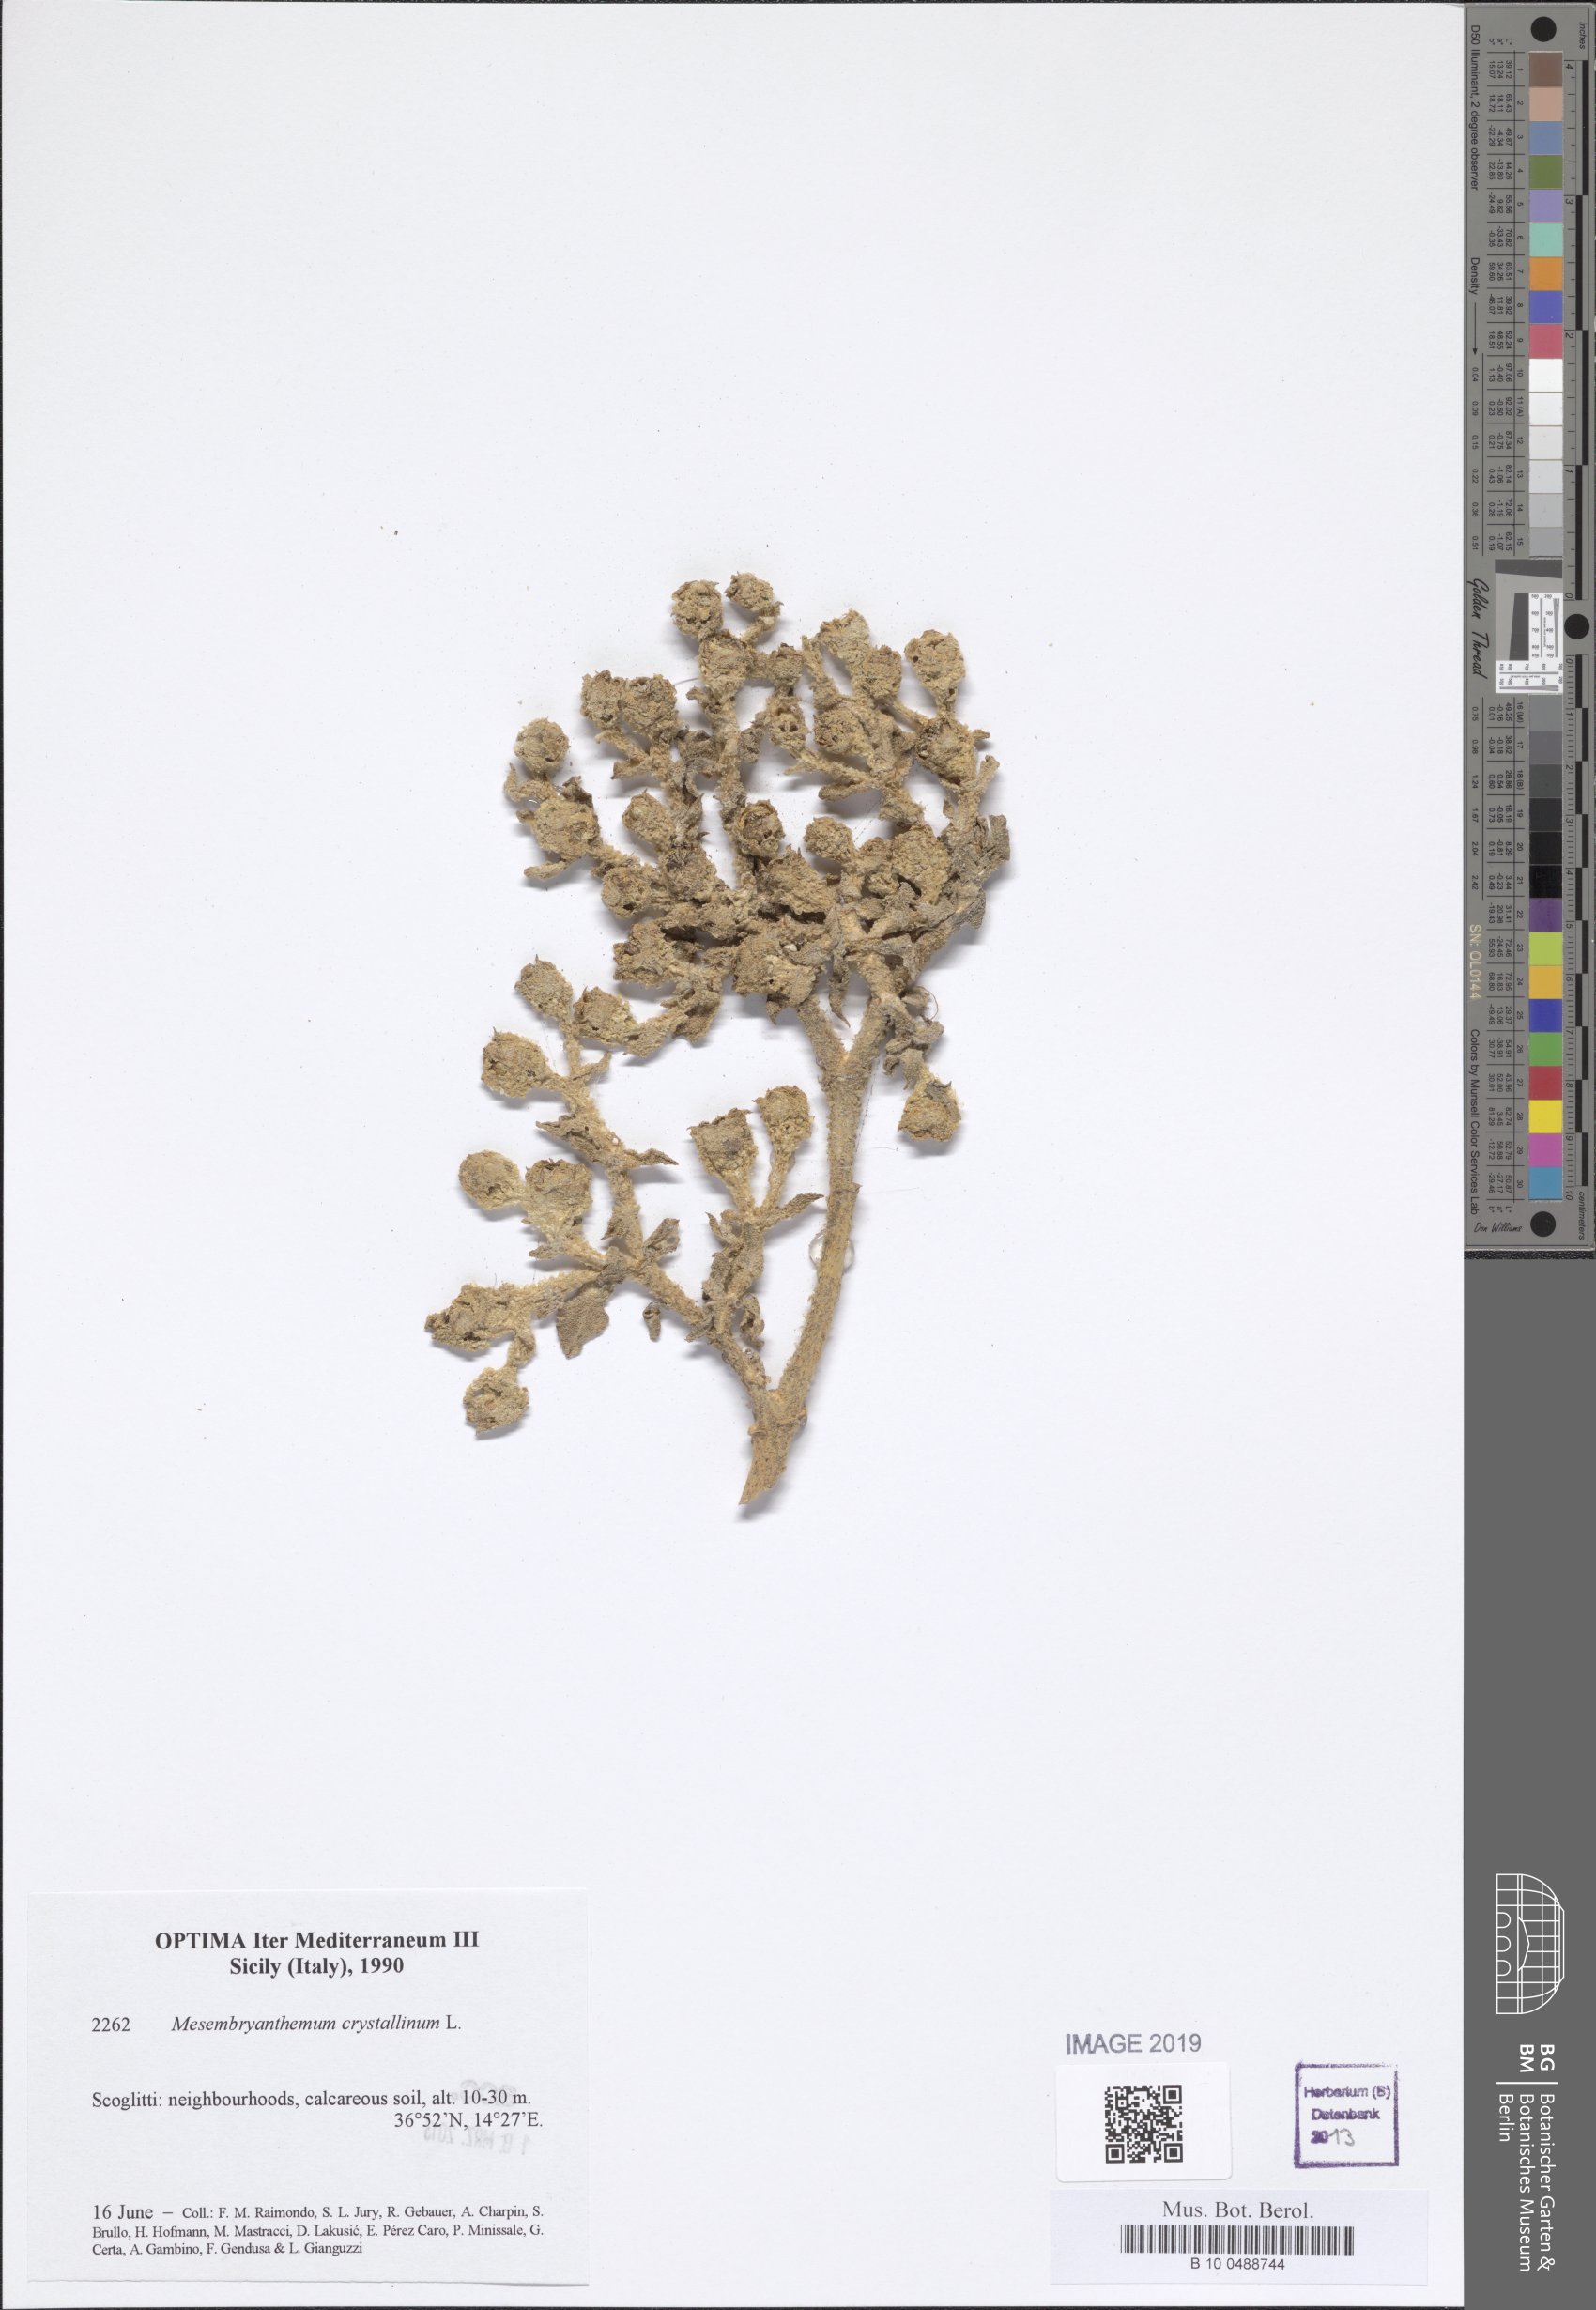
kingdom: Plantae
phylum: Tracheophyta
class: Magnoliopsida
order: Caryophyllales
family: Aizoaceae
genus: Mesembryanthemum
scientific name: Mesembryanthemum crystallinum
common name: Common iceplant
